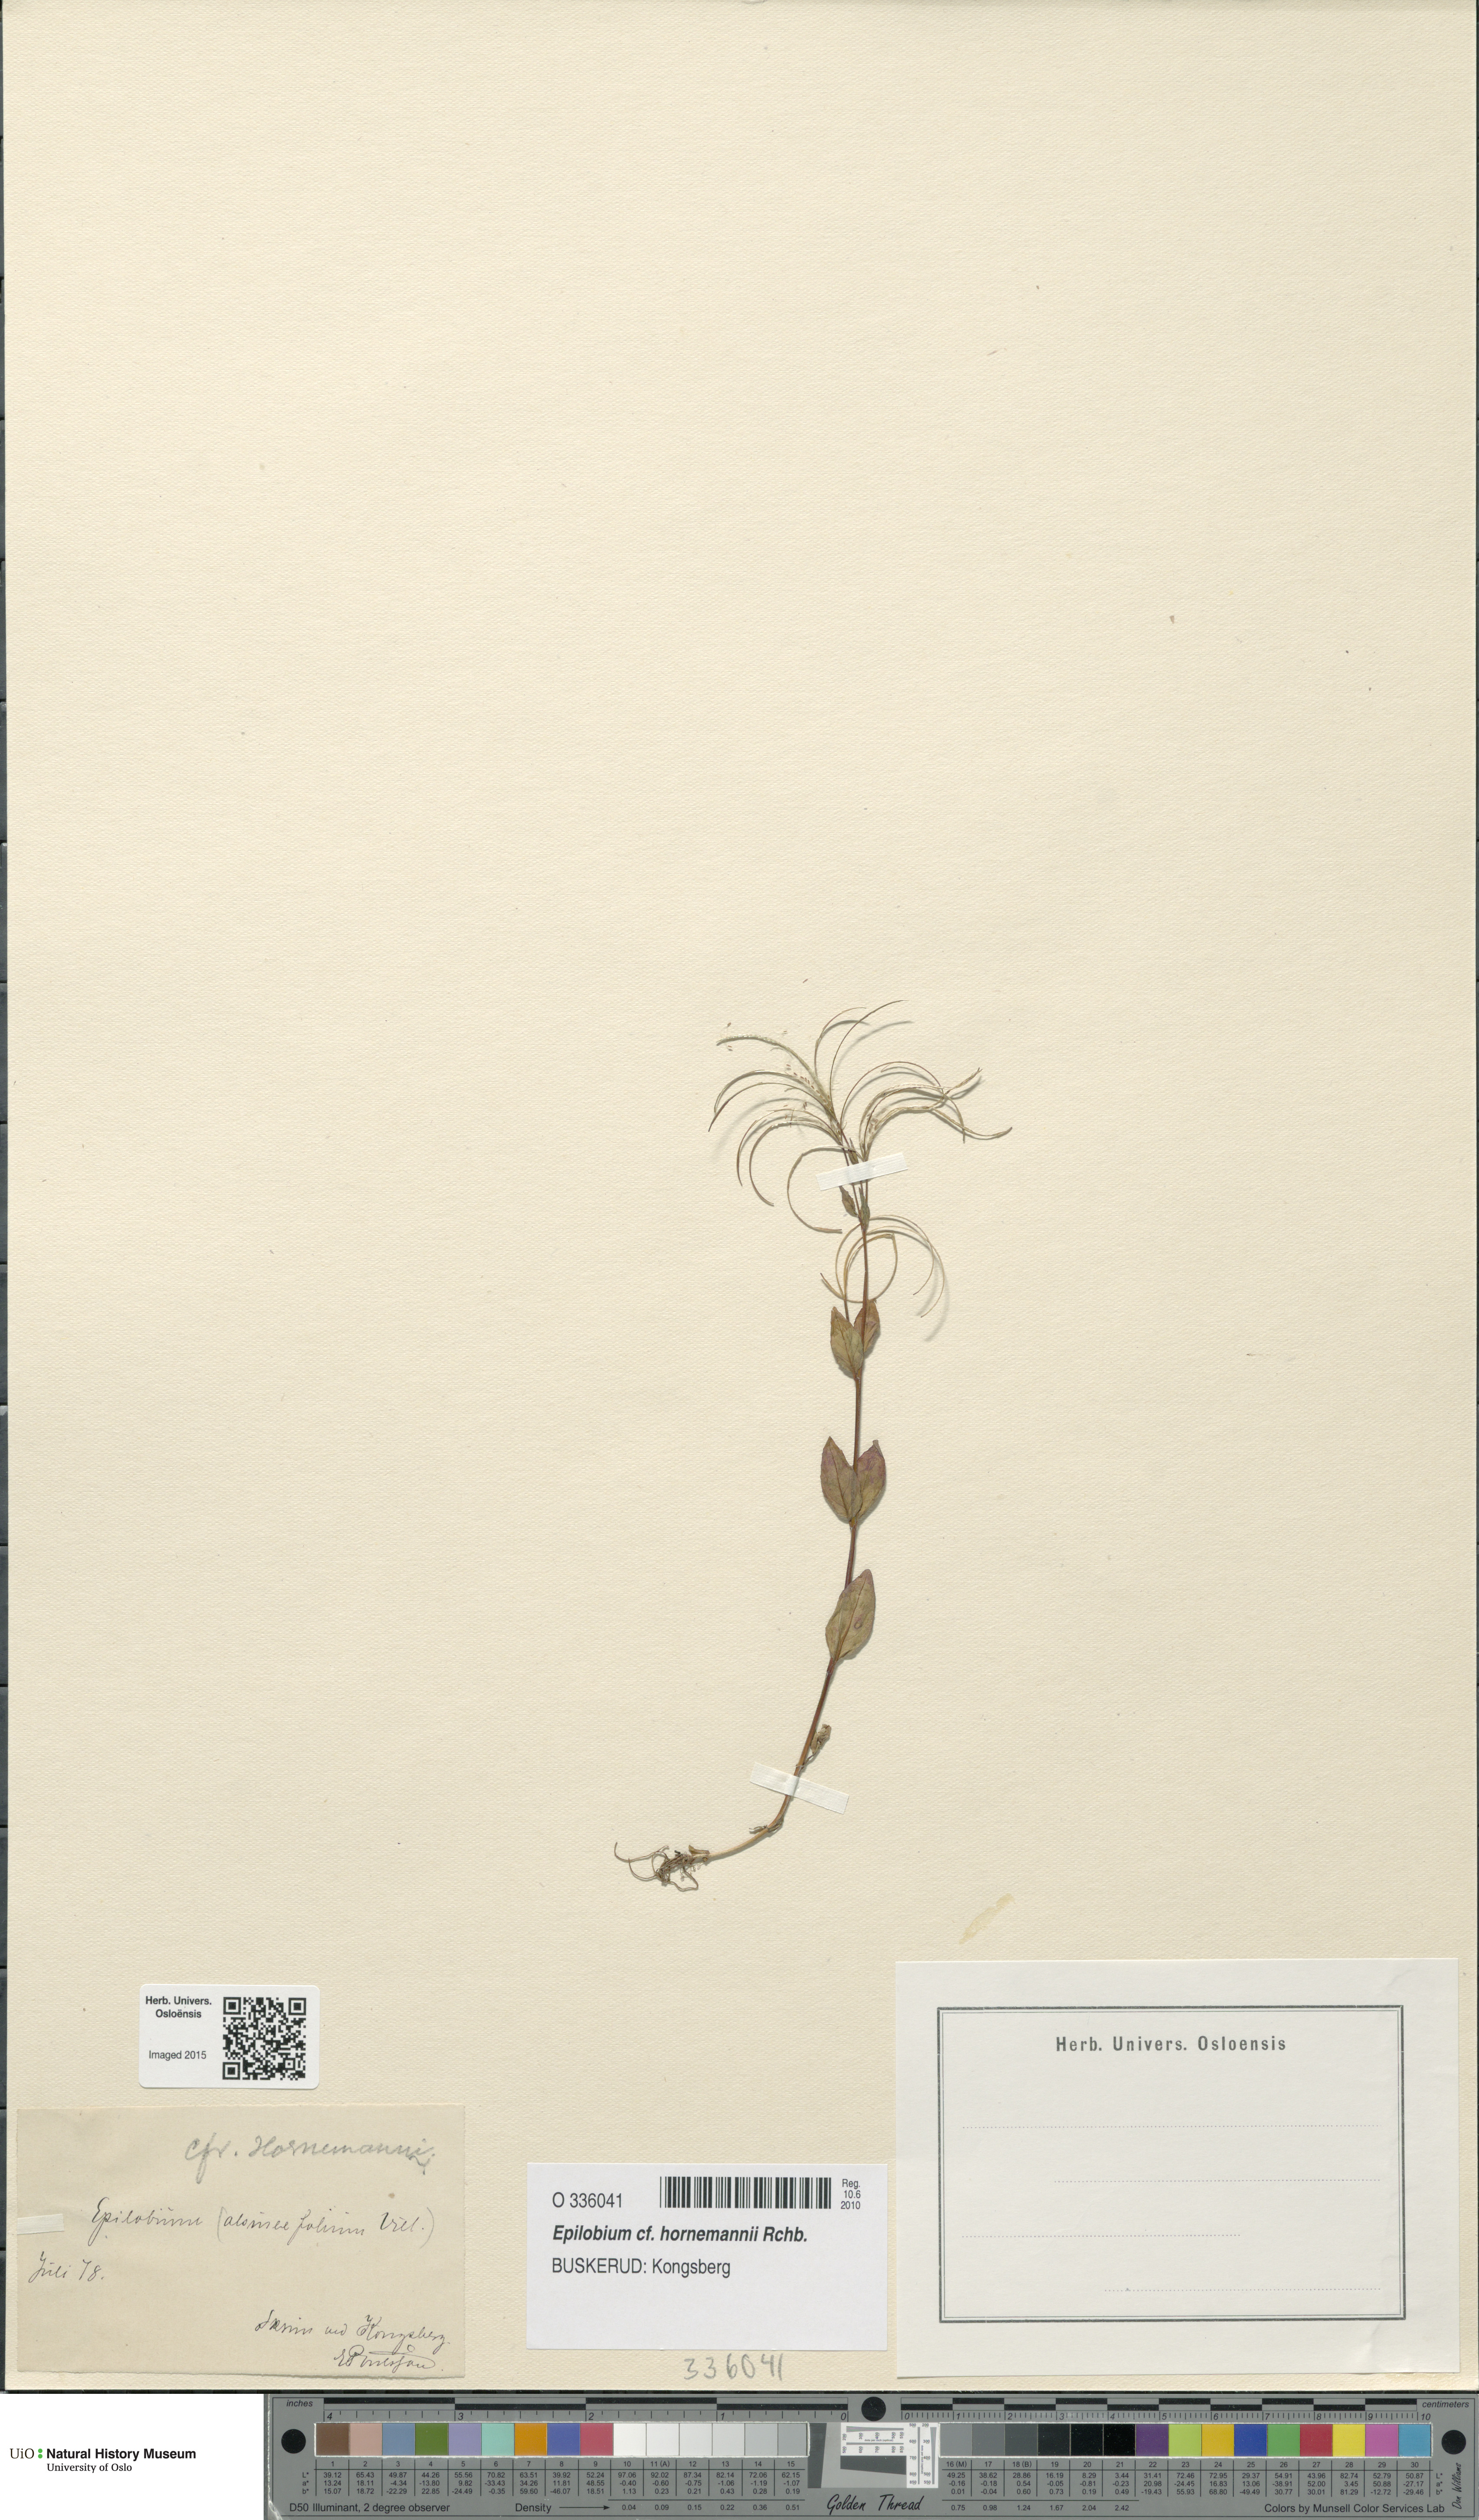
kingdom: Plantae
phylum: Tracheophyta
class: Magnoliopsida
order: Myrtales
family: Onagraceae
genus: Epilobium
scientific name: Epilobium hornemannii
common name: Hornemann's willowherb
